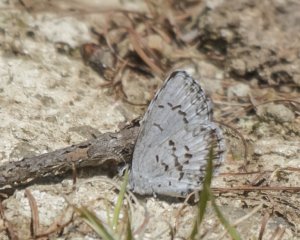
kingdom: Animalia
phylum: Arthropoda
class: Insecta
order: Lepidoptera
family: Lycaenidae
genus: Celastrina
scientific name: Celastrina lucia
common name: Northern Spring Azure
